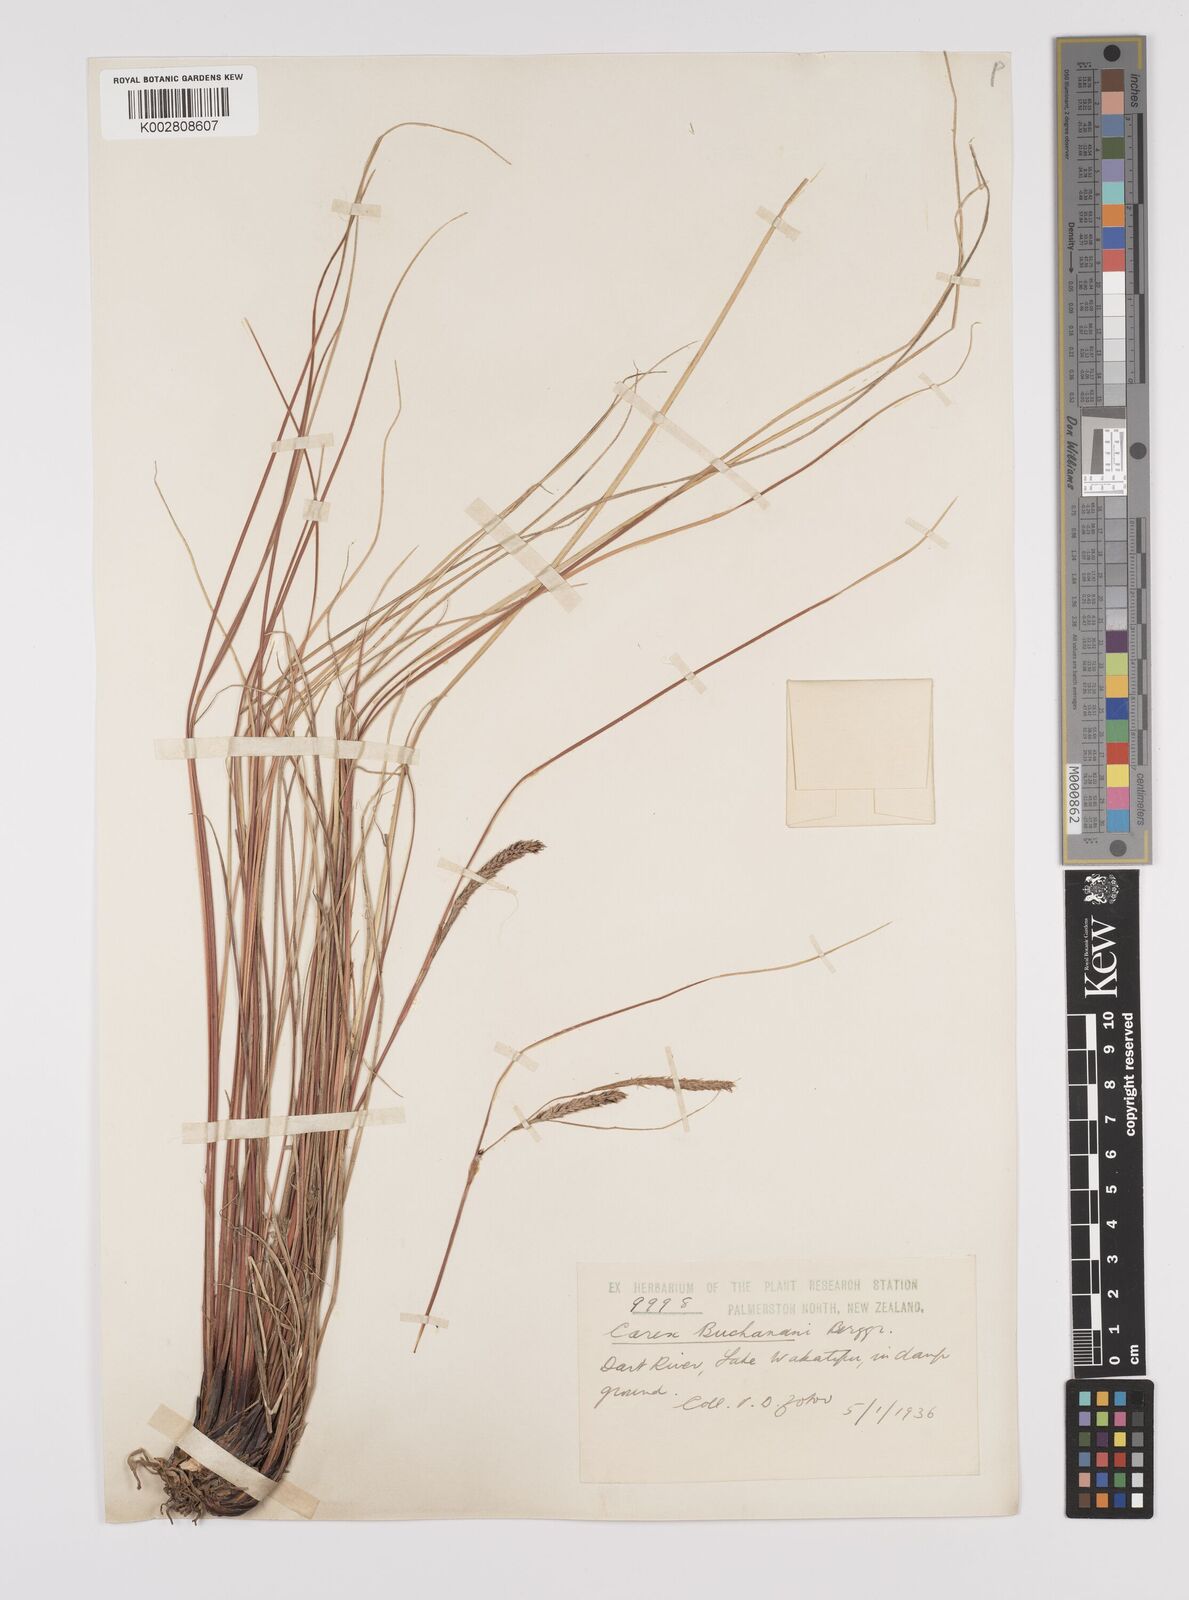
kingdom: Plantae
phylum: Tracheophyta
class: Liliopsida
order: Poales
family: Cyperaceae
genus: Carex
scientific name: Carex flagellifera
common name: Glen murray tussock
